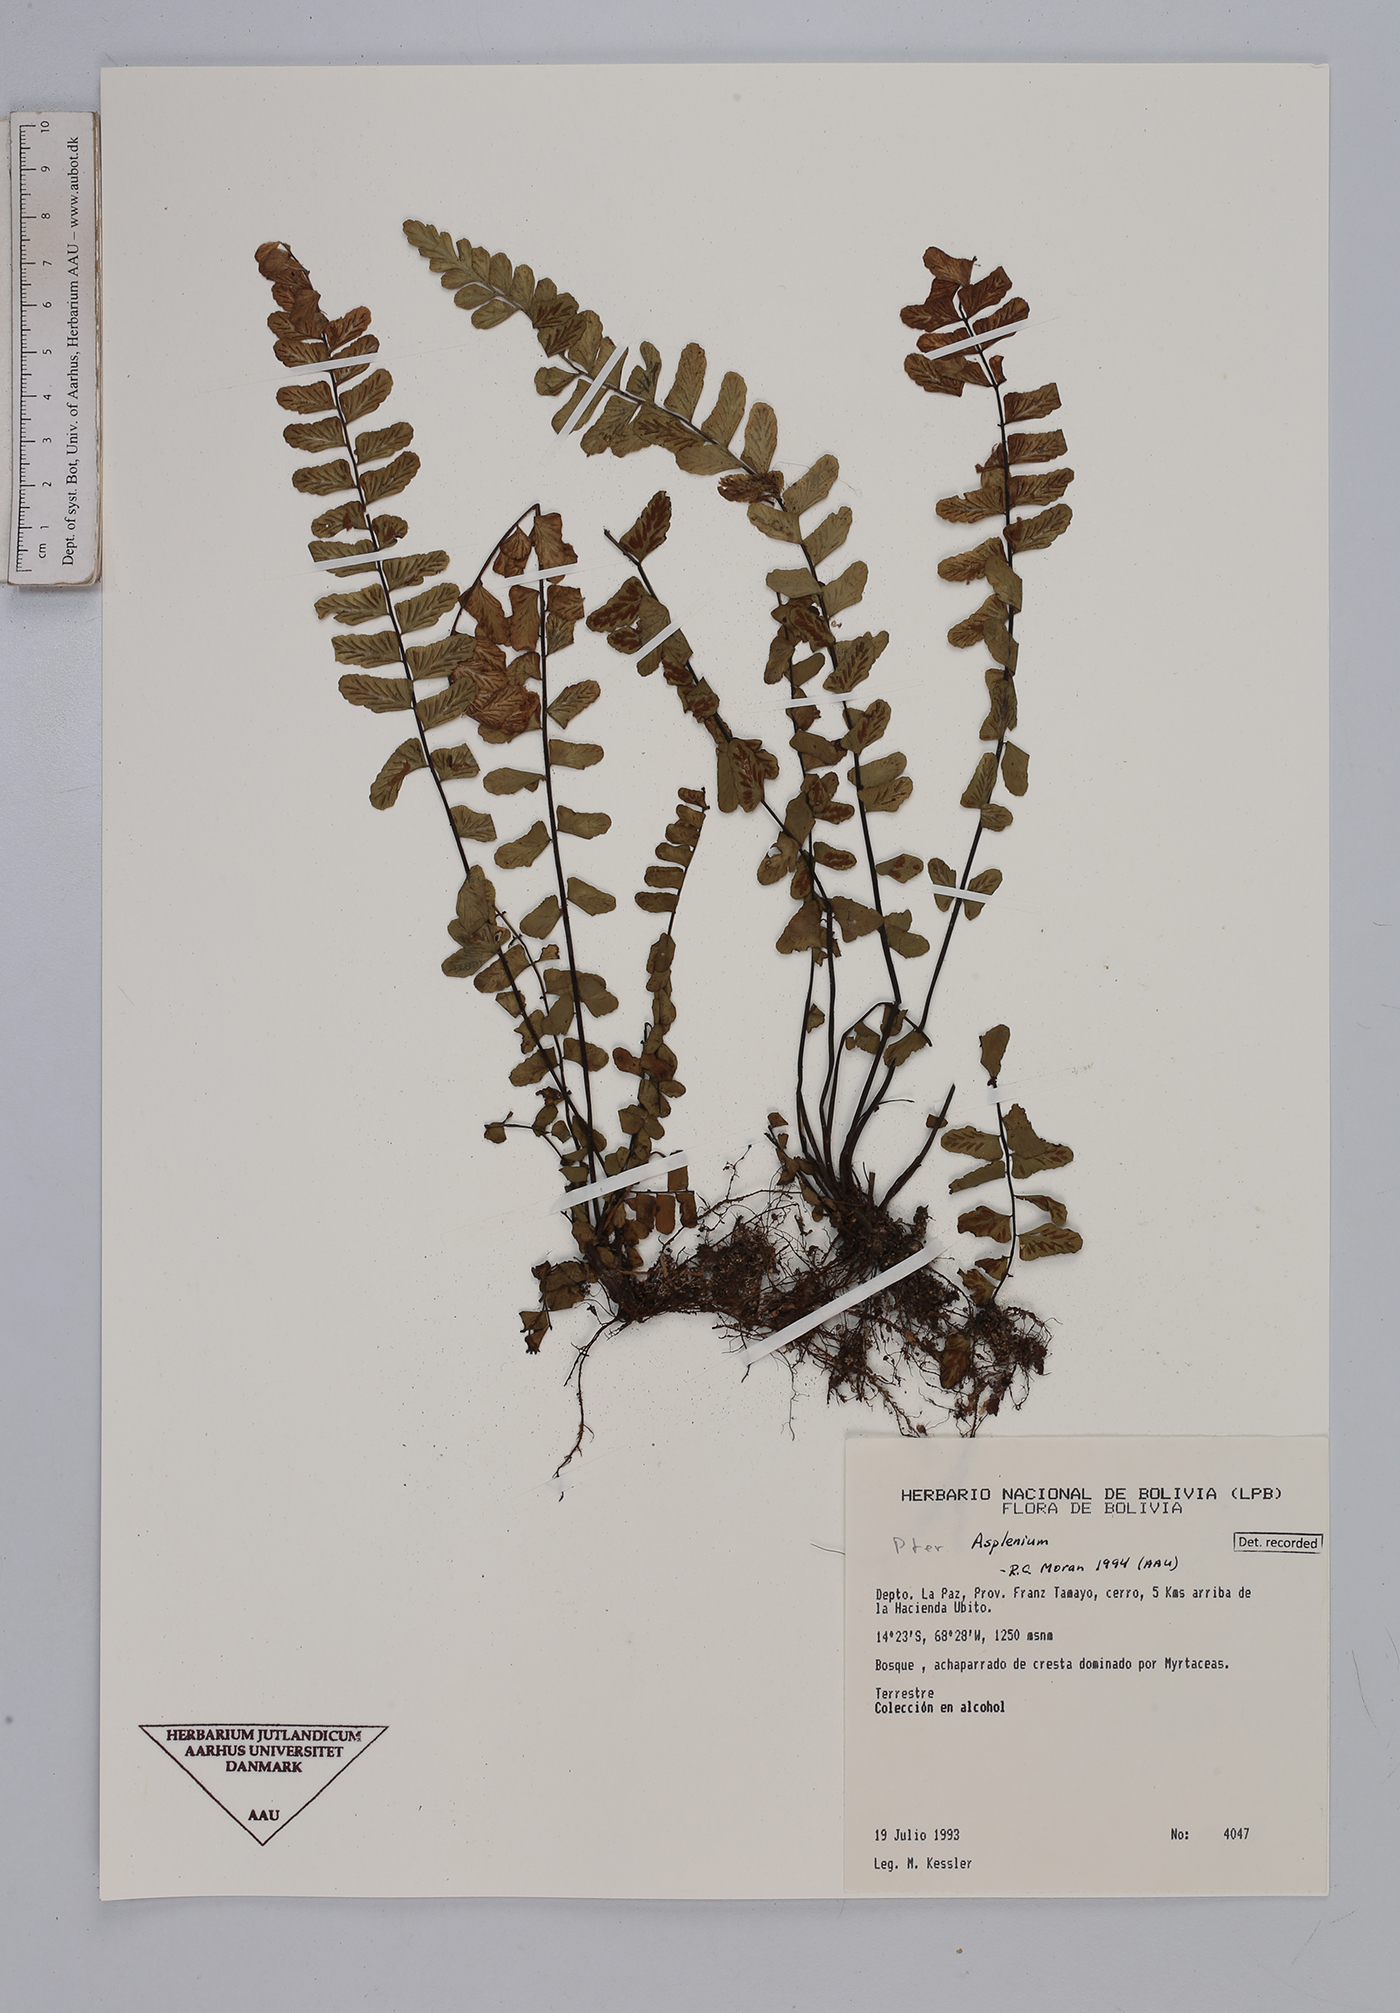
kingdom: Plantae
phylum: Tracheophyta
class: Polypodiopsida
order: Polypodiales
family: Aspleniaceae
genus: Asplenium
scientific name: Asplenium
